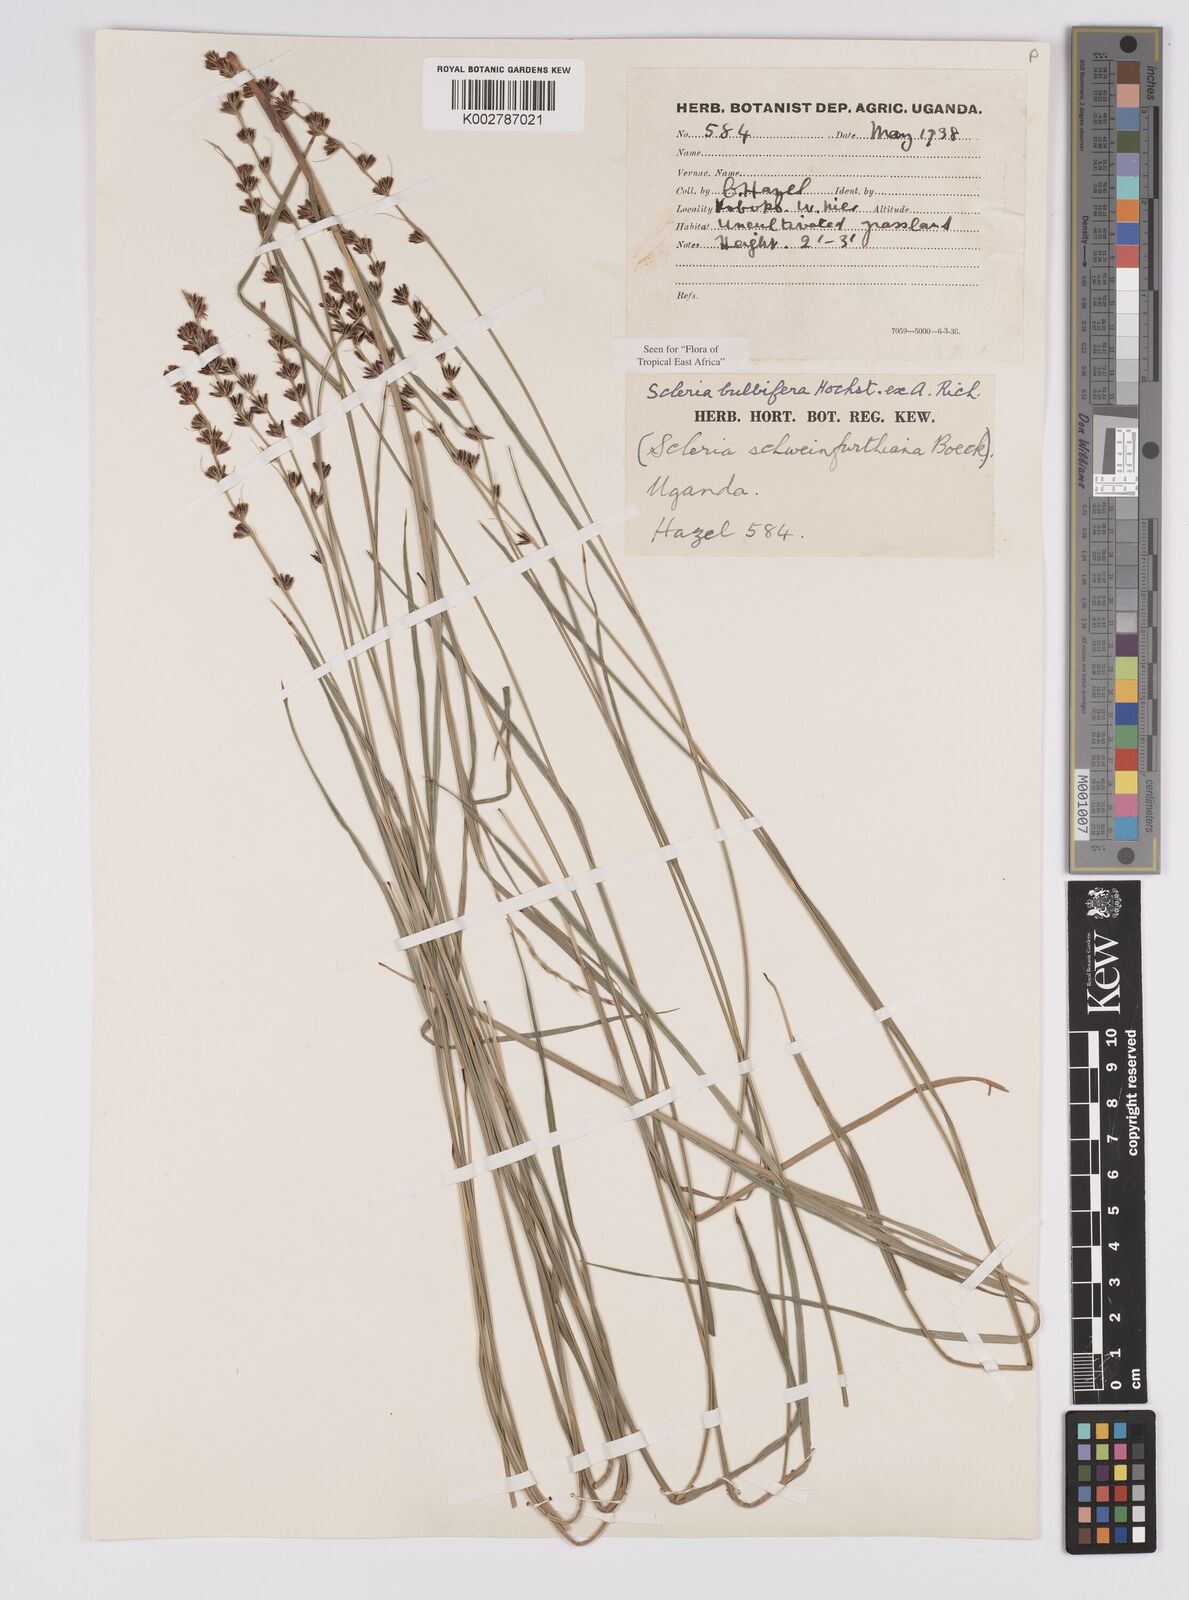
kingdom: Plantae
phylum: Tracheophyta
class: Liliopsida
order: Poales
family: Cyperaceae
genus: Scleria
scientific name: Scleria bulbifera
